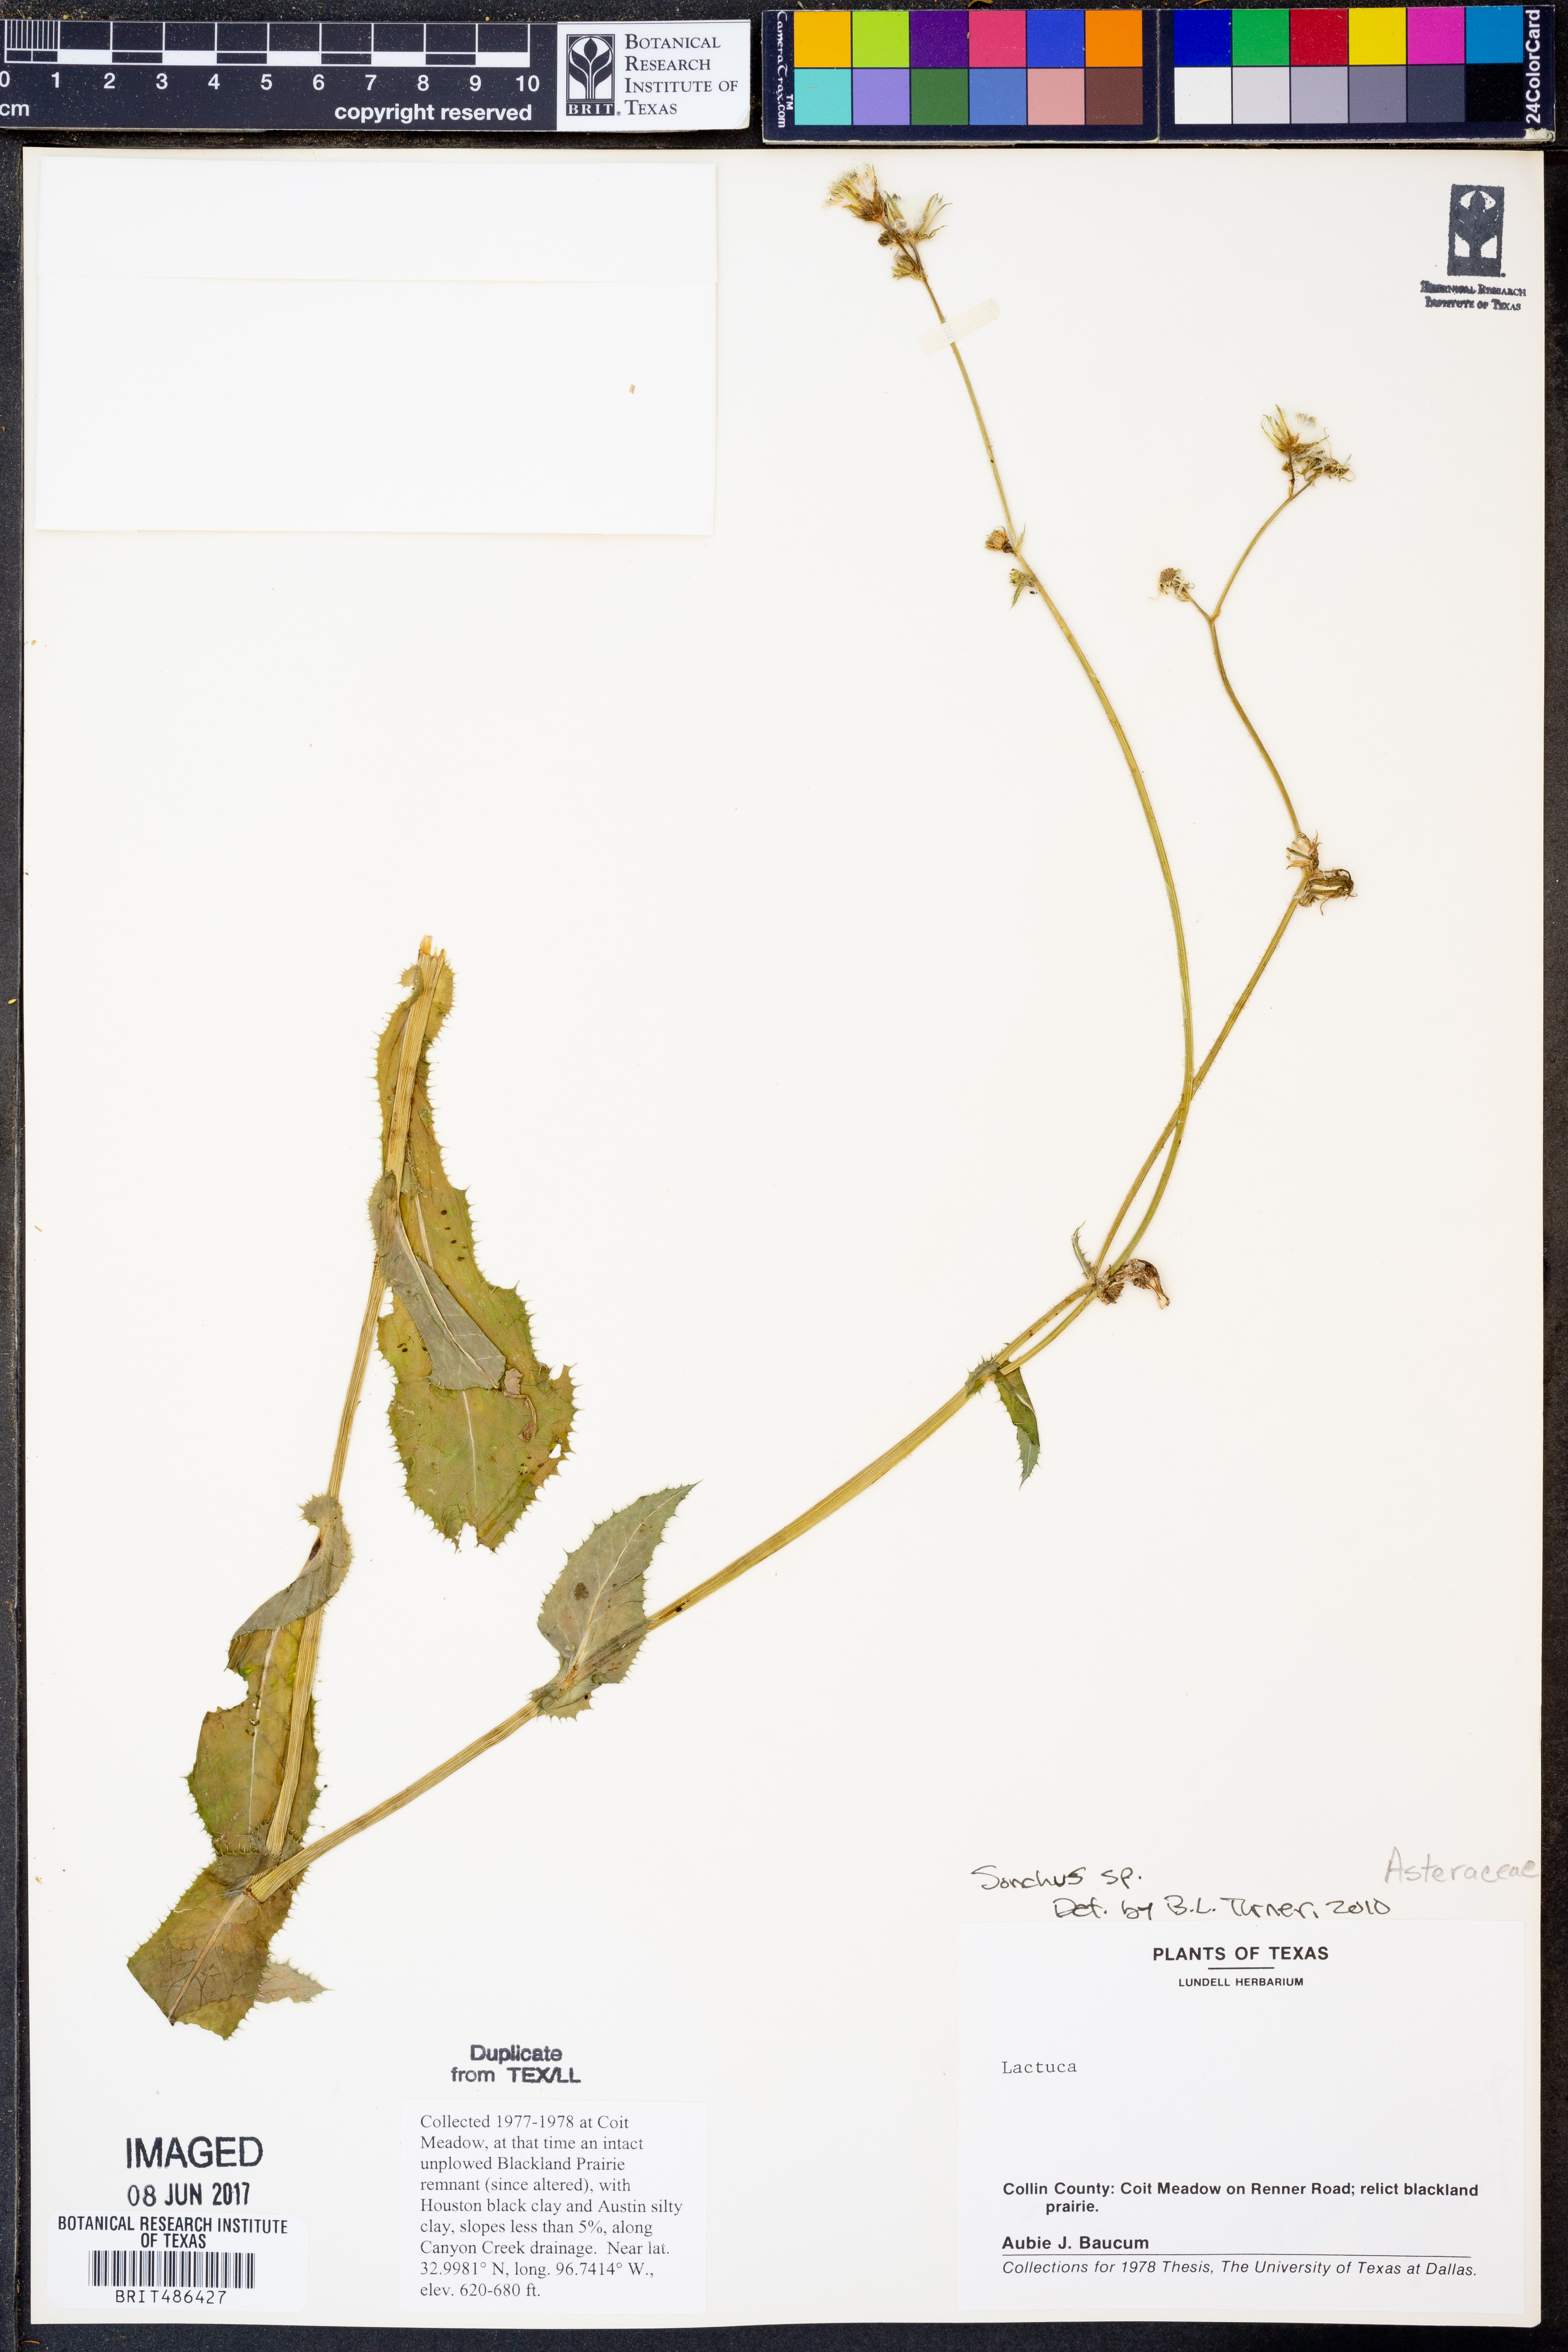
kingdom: Plantae
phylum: Tracheophyta
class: Magnoliopsida
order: Asterales
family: Asteraceae
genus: Sonchus
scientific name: Sonchus
